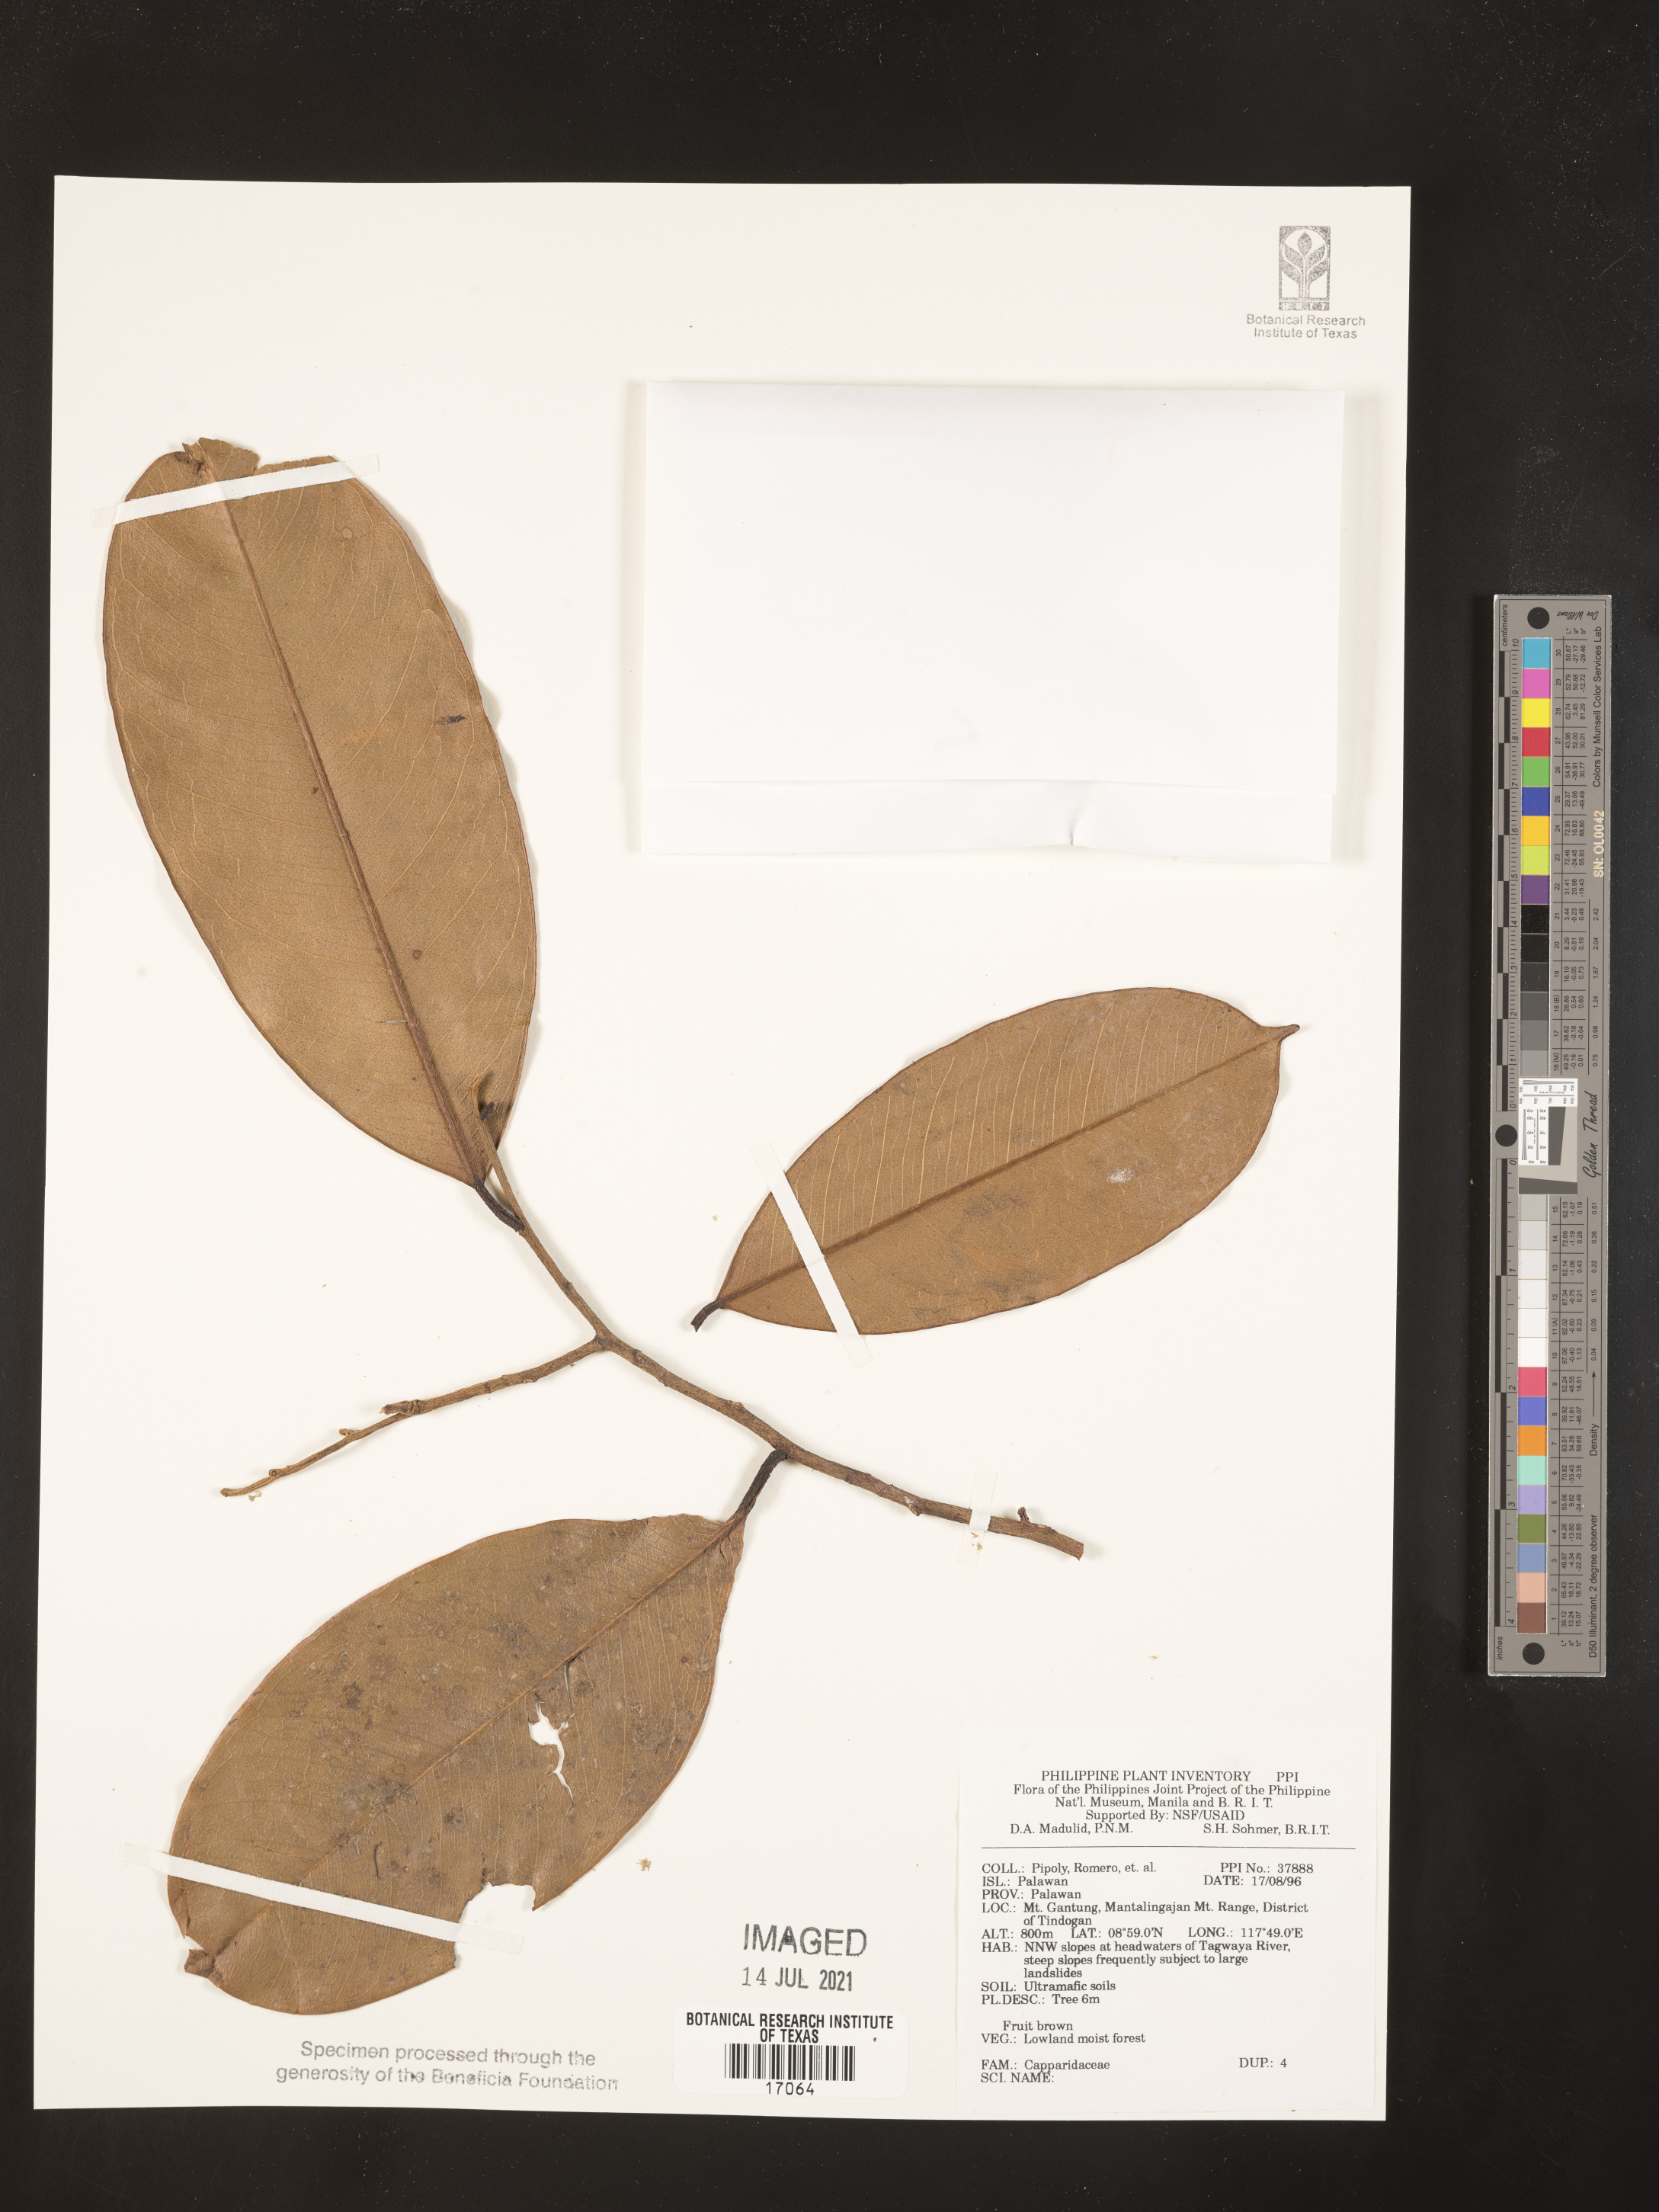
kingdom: Plantae
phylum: Tracheophyta
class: Magnoliopsida
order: Brassicales
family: Capparaceae
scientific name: Capparaceae
